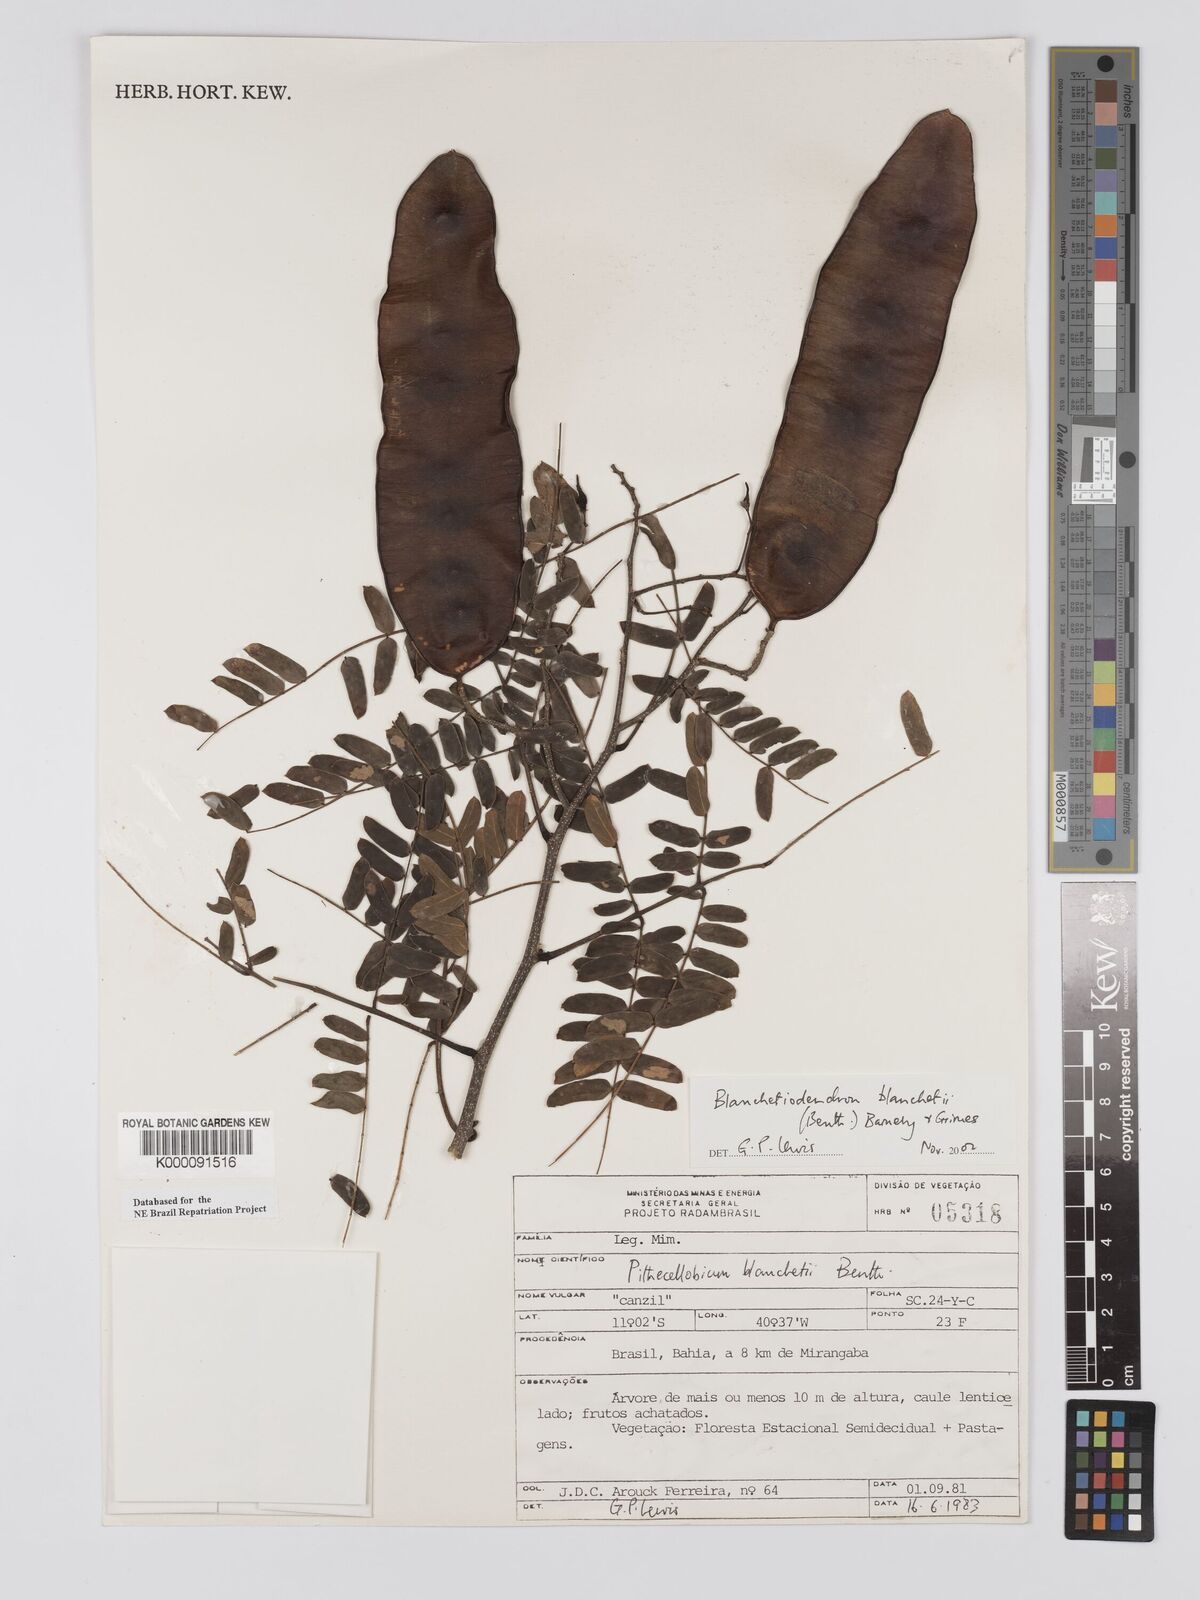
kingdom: Plantae
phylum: Tracheophyta
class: Magnoliopsida
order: Fabales
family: Fabaceae
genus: Blanchetiodendron
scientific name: Blanchetiodendron blanchetii
